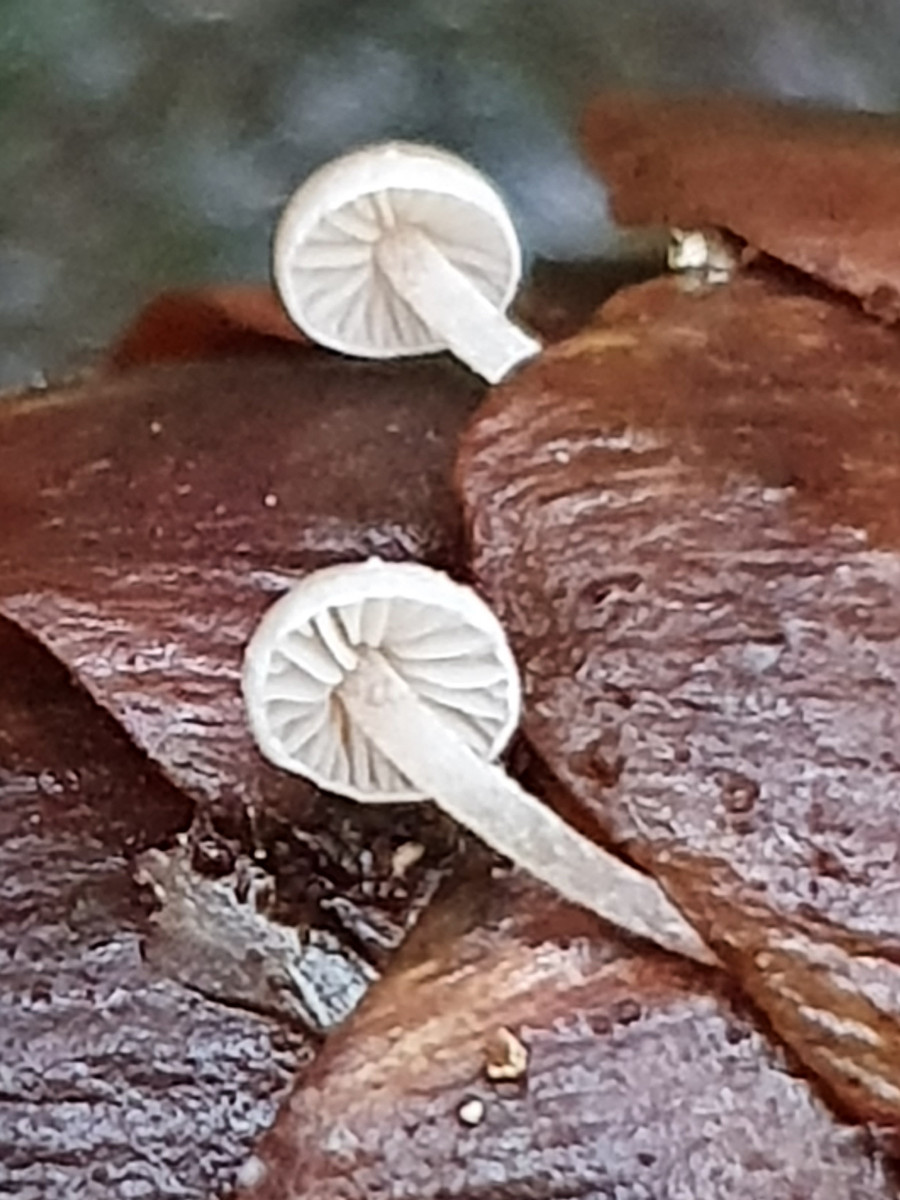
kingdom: Fungi
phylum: Basidiomycota
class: Agaricomycetes
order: Agaricales
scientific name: Agaricales
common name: champignonordenen
